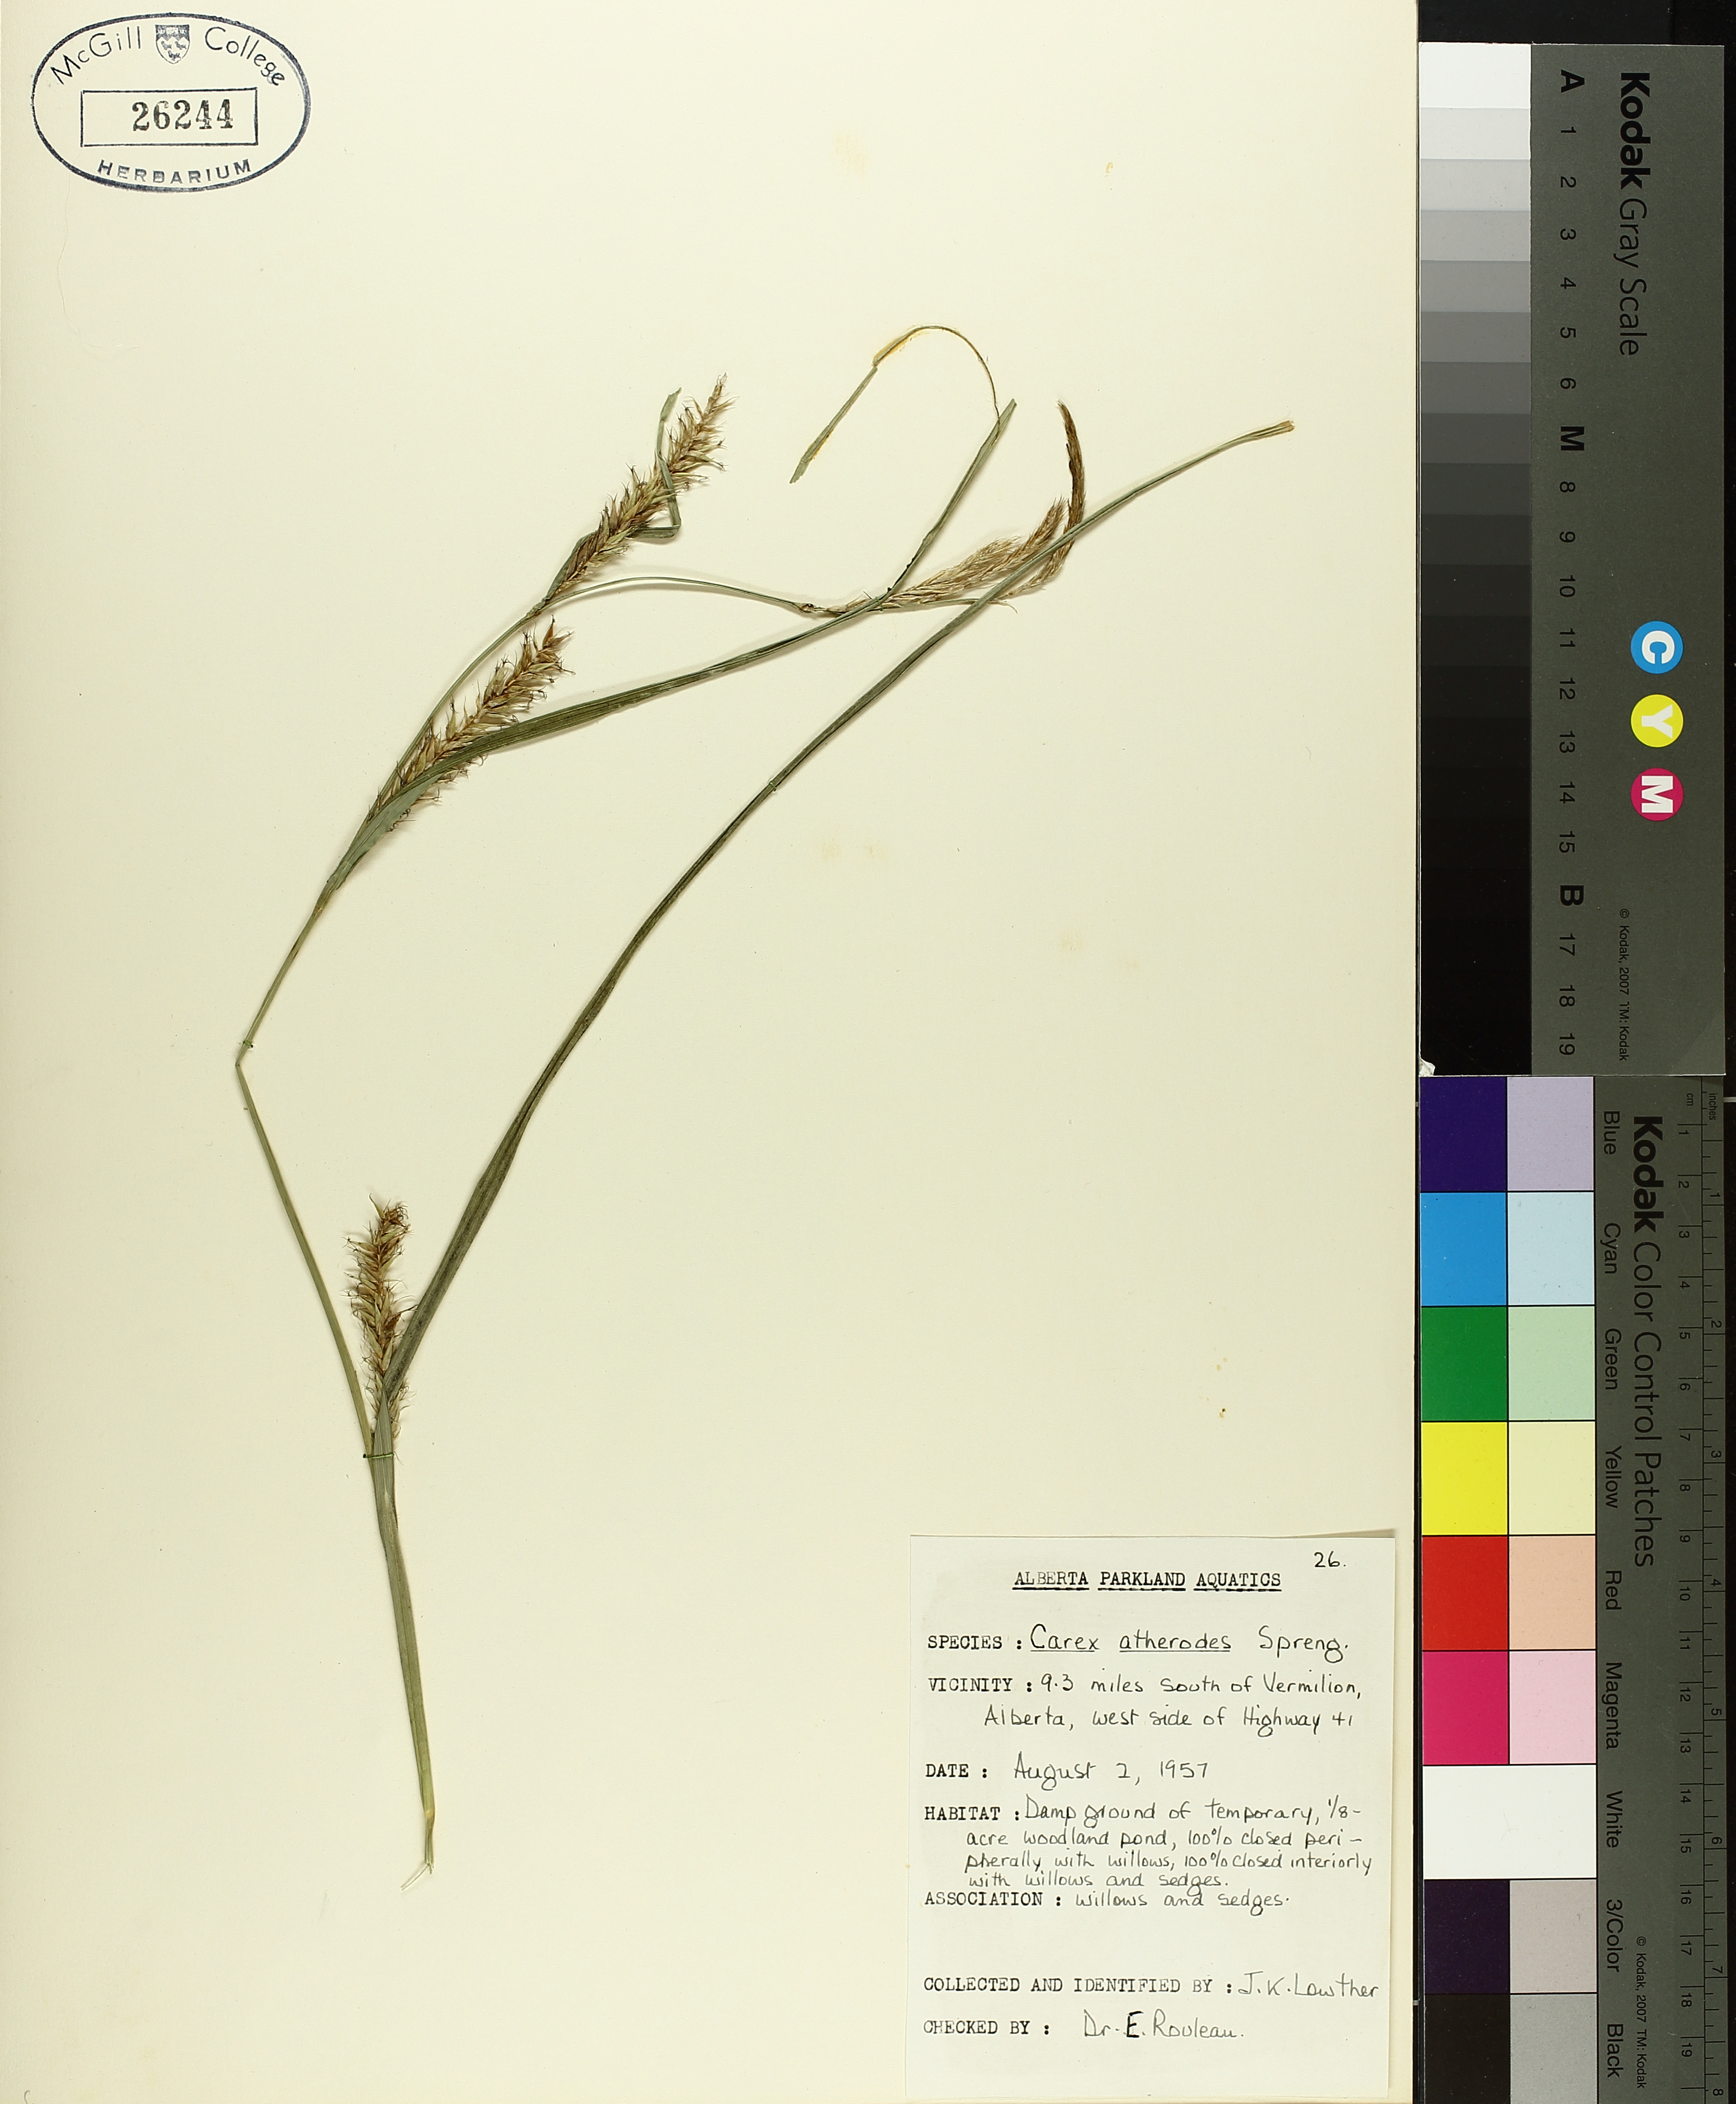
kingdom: Plantae
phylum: Tracheophyta
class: Liliopsida
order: Poales
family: Cyperaceae
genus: Carex
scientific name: Carex atherodes
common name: Wheat sedge
